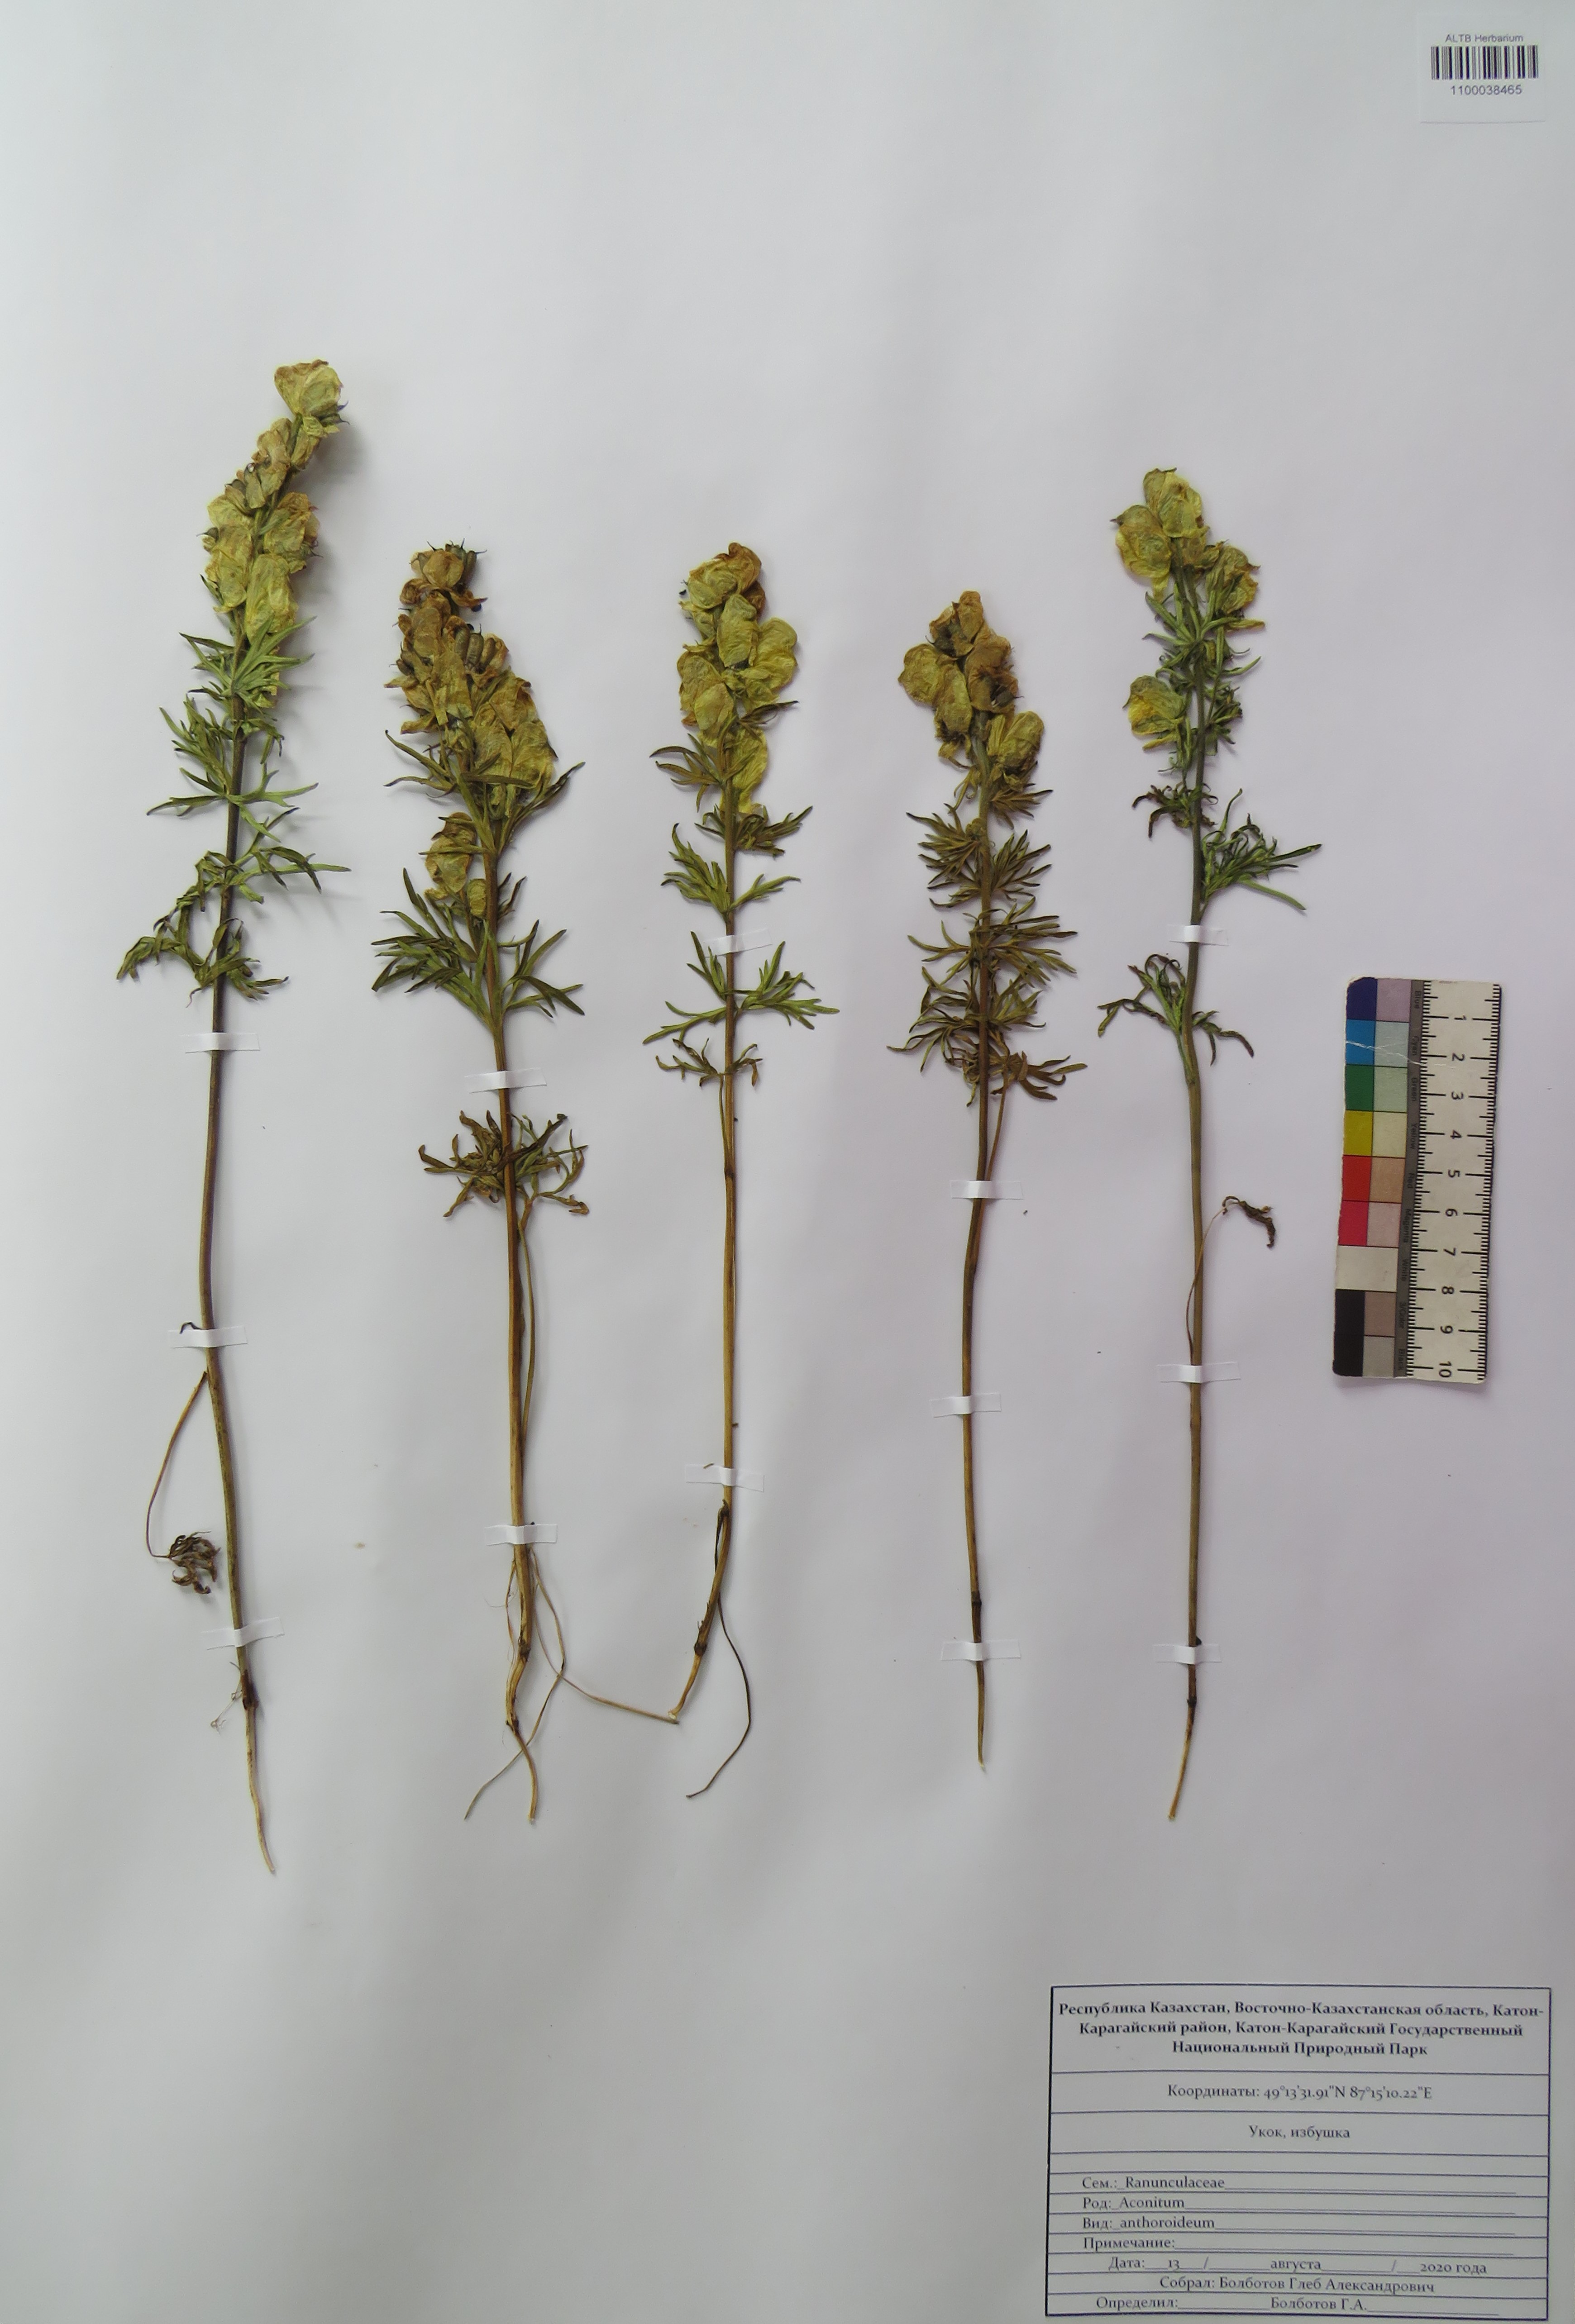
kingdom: Plantae
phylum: Tracheophyta
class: Magnoliopsida
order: Ranunculales
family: Ranunculaceae
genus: Aconitum
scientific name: Aconitum anthoroideum
